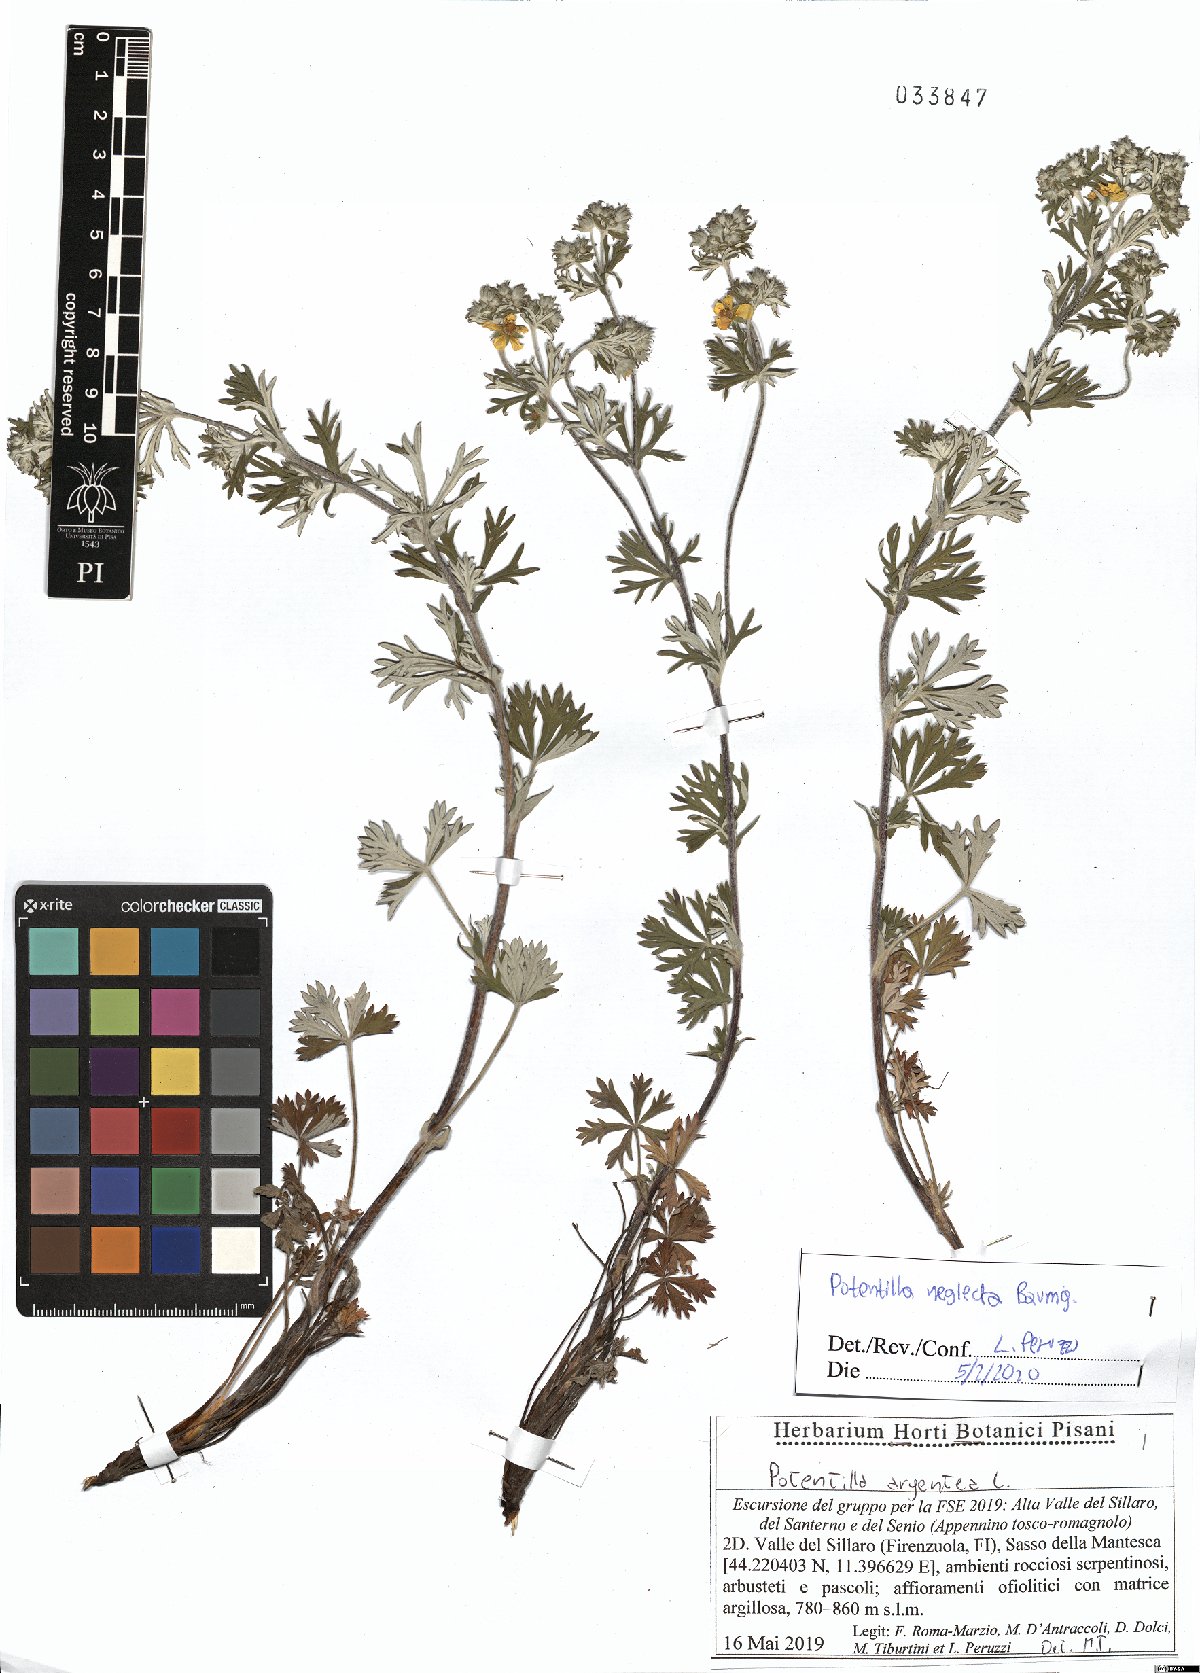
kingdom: Plantae
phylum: Tracheophyta
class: Magnoliopsida
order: Rosales
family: Rosaceae
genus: Potentilla
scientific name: Potentilla neglecta
